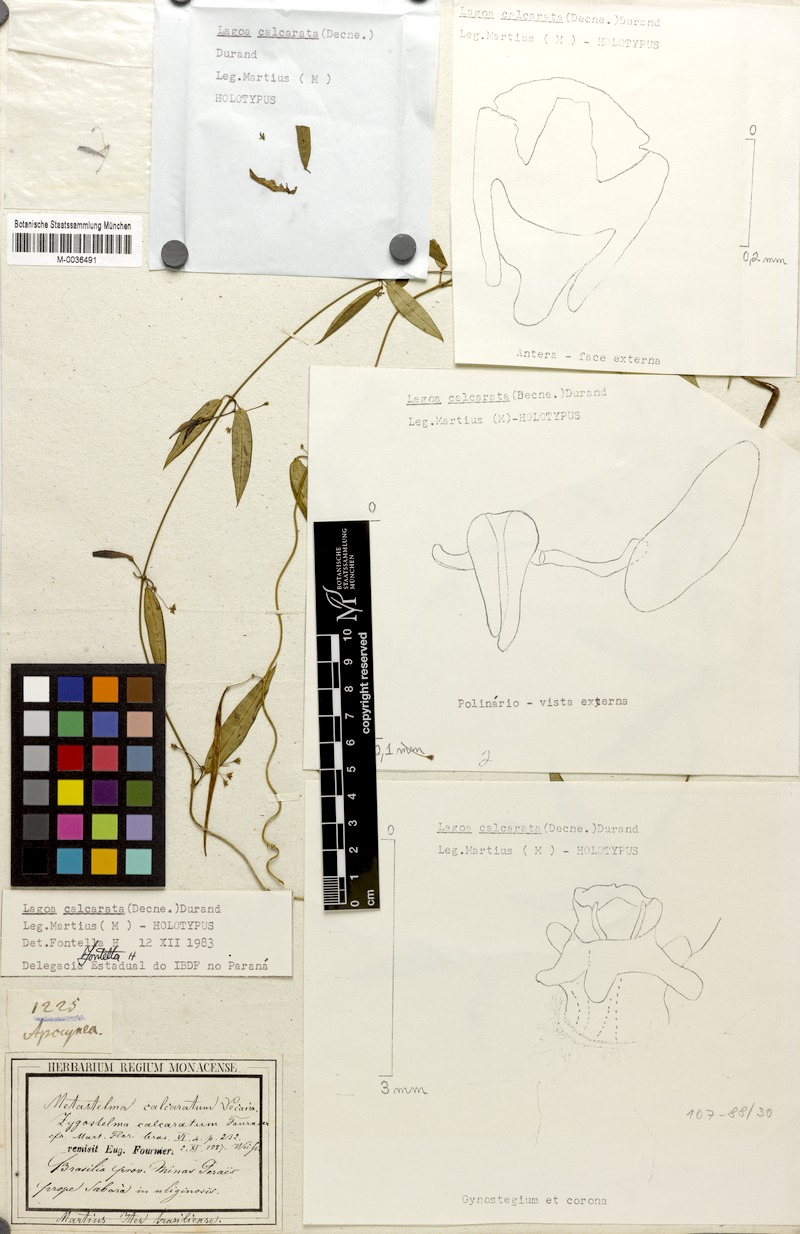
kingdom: Plantae
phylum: Tracheophyta
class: Magnoliopsida
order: Gentianales
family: Apocynaceae
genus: Petalostelma
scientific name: Petalostelma calcaratum
